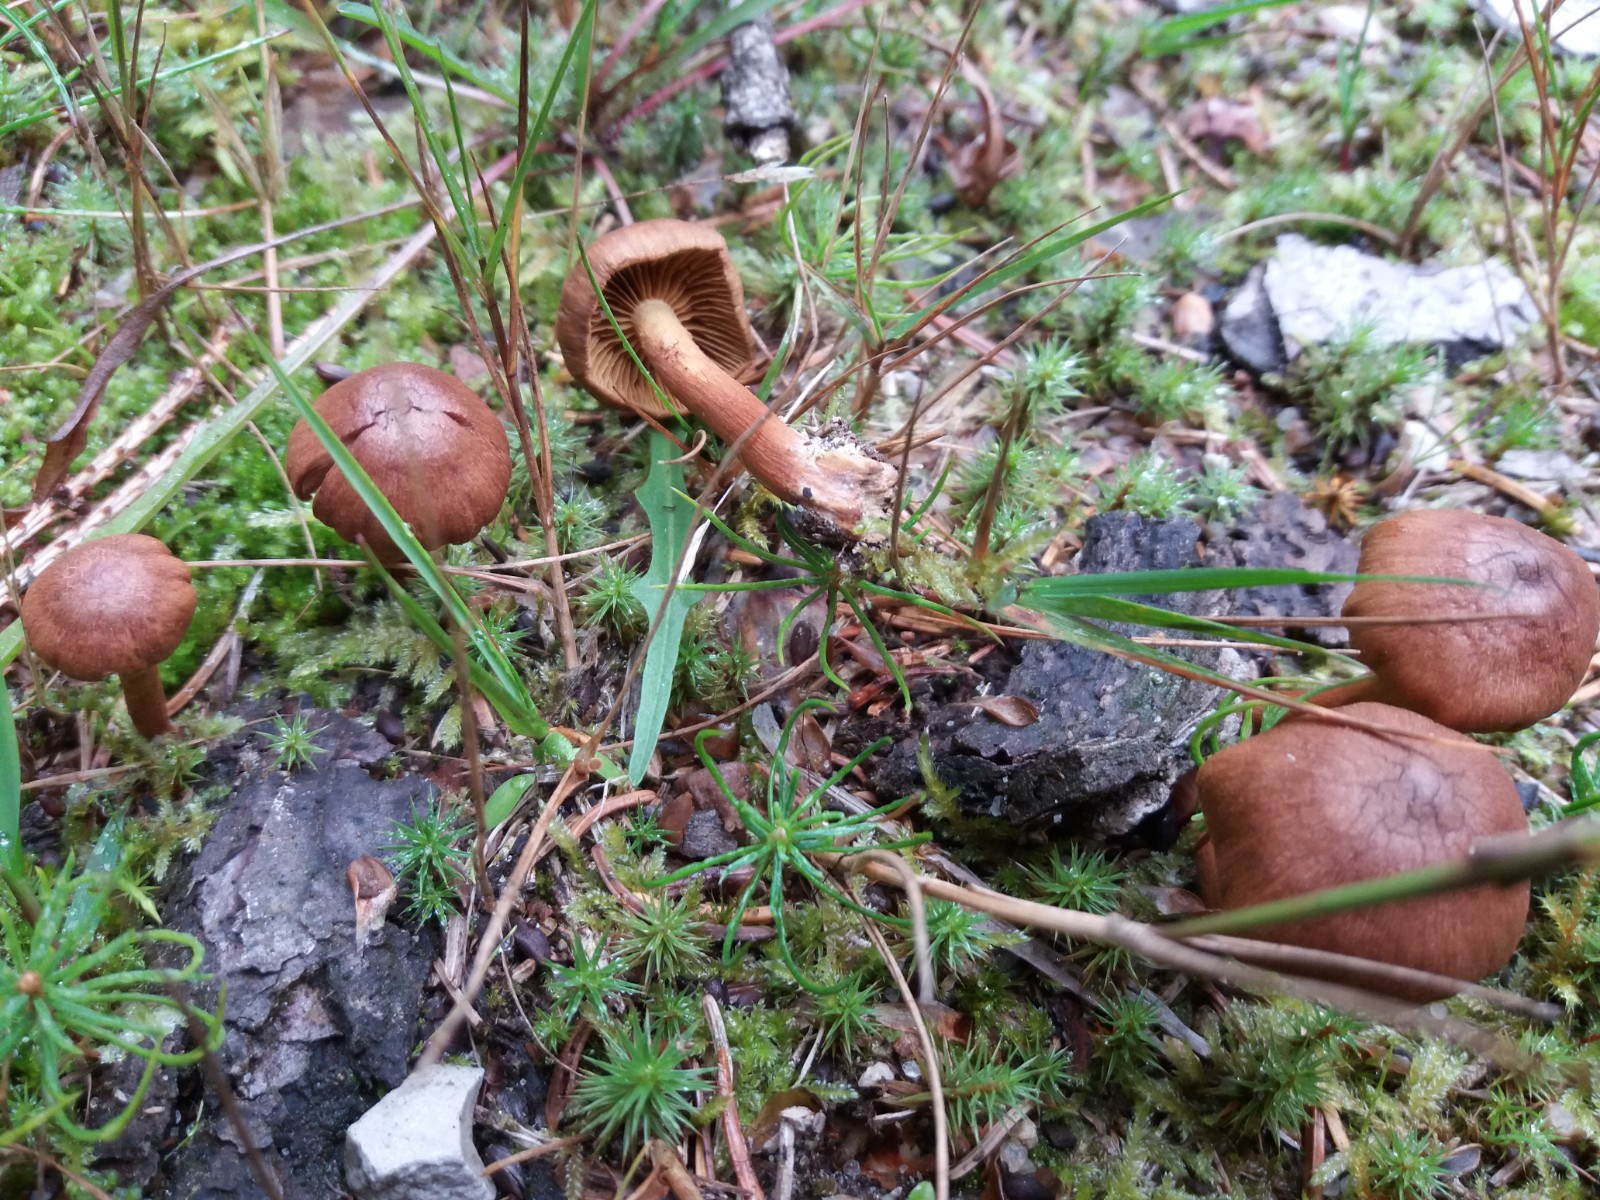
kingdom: Fungi
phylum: Basidiomycota
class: Agaricomycetes
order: Agaricales
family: Cortinariaceae
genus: Cortinarius
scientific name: Cortinarius pellstonianus
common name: zoneret slørhat
